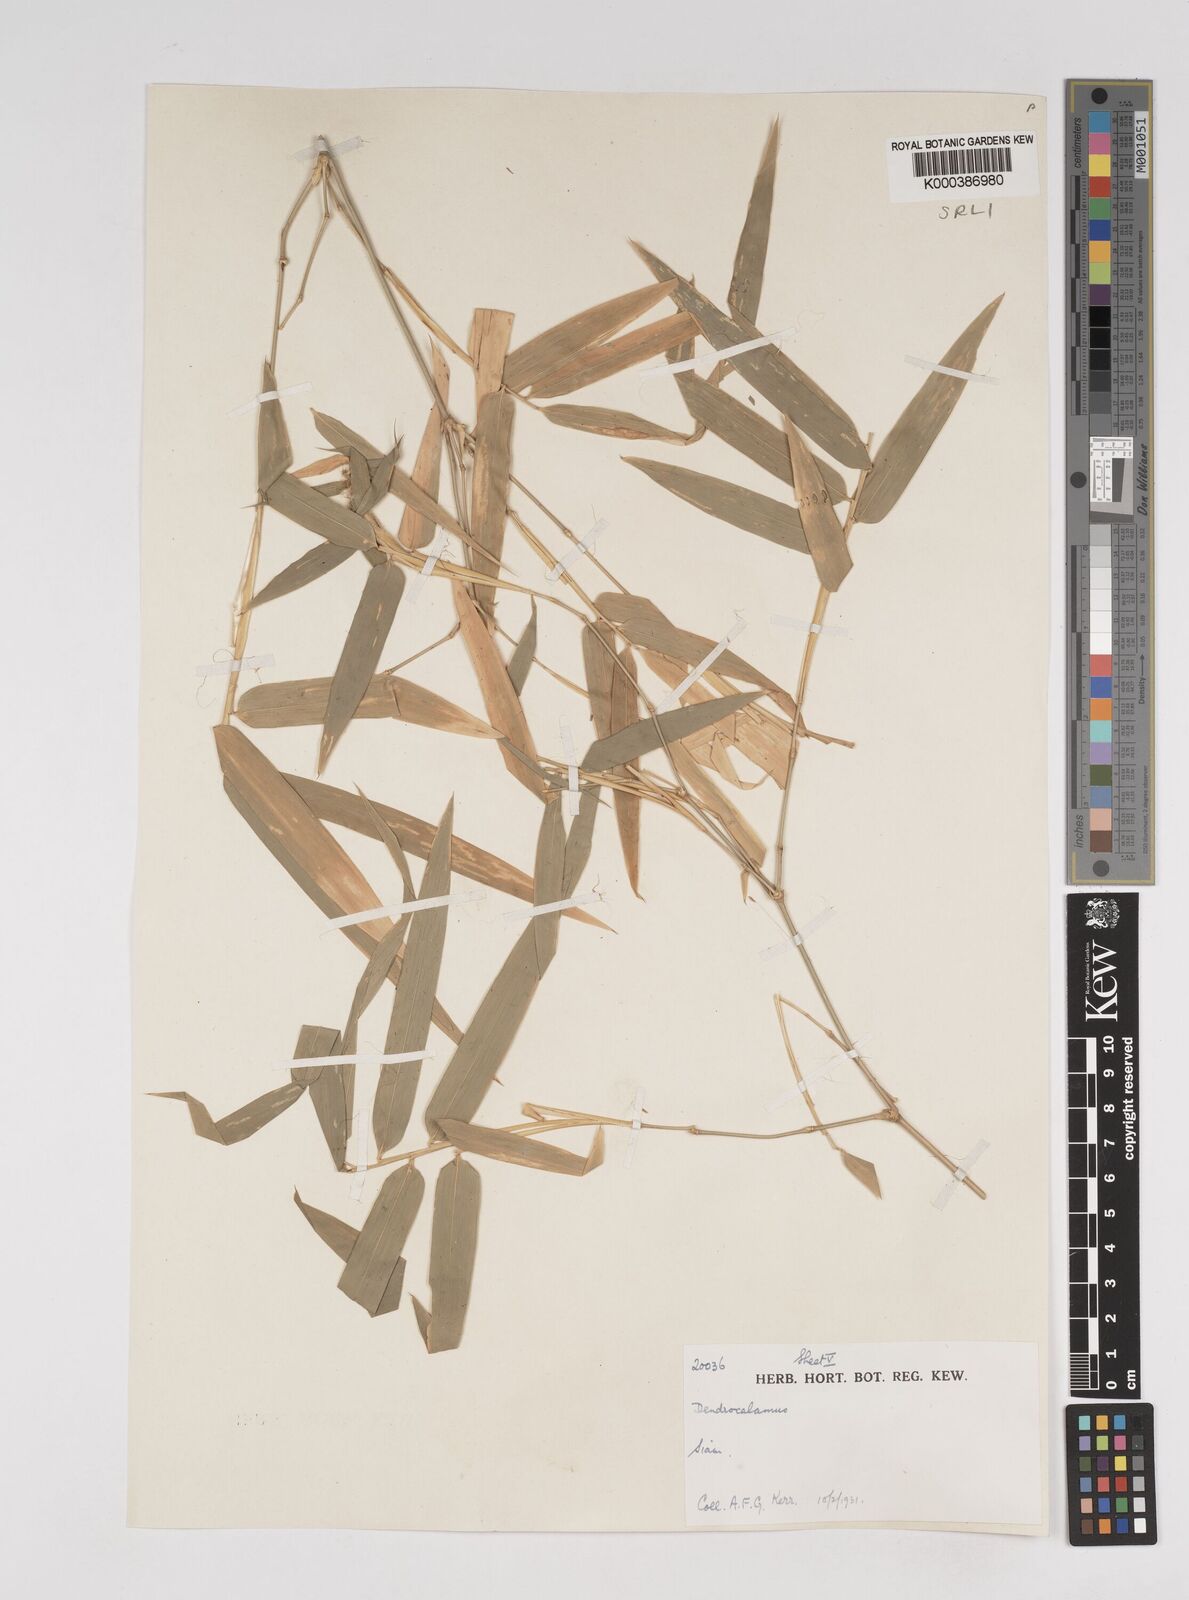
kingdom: Plantae
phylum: Tracheophyta
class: Liliopsida
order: Poales
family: Poaceae
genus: Dendrocalamus
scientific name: Dendrocalamus membranaceus
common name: White bamboo
